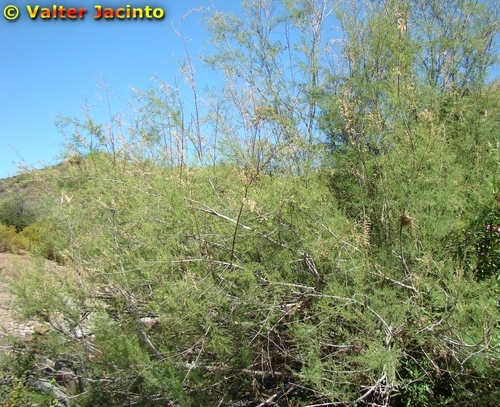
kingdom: Plantae
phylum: Tracheophyta
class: Magnoliopsida
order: Caryophyllales
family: Tamaricaceae
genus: Tamarix
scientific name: Tamarix africana
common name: African tamarisk
